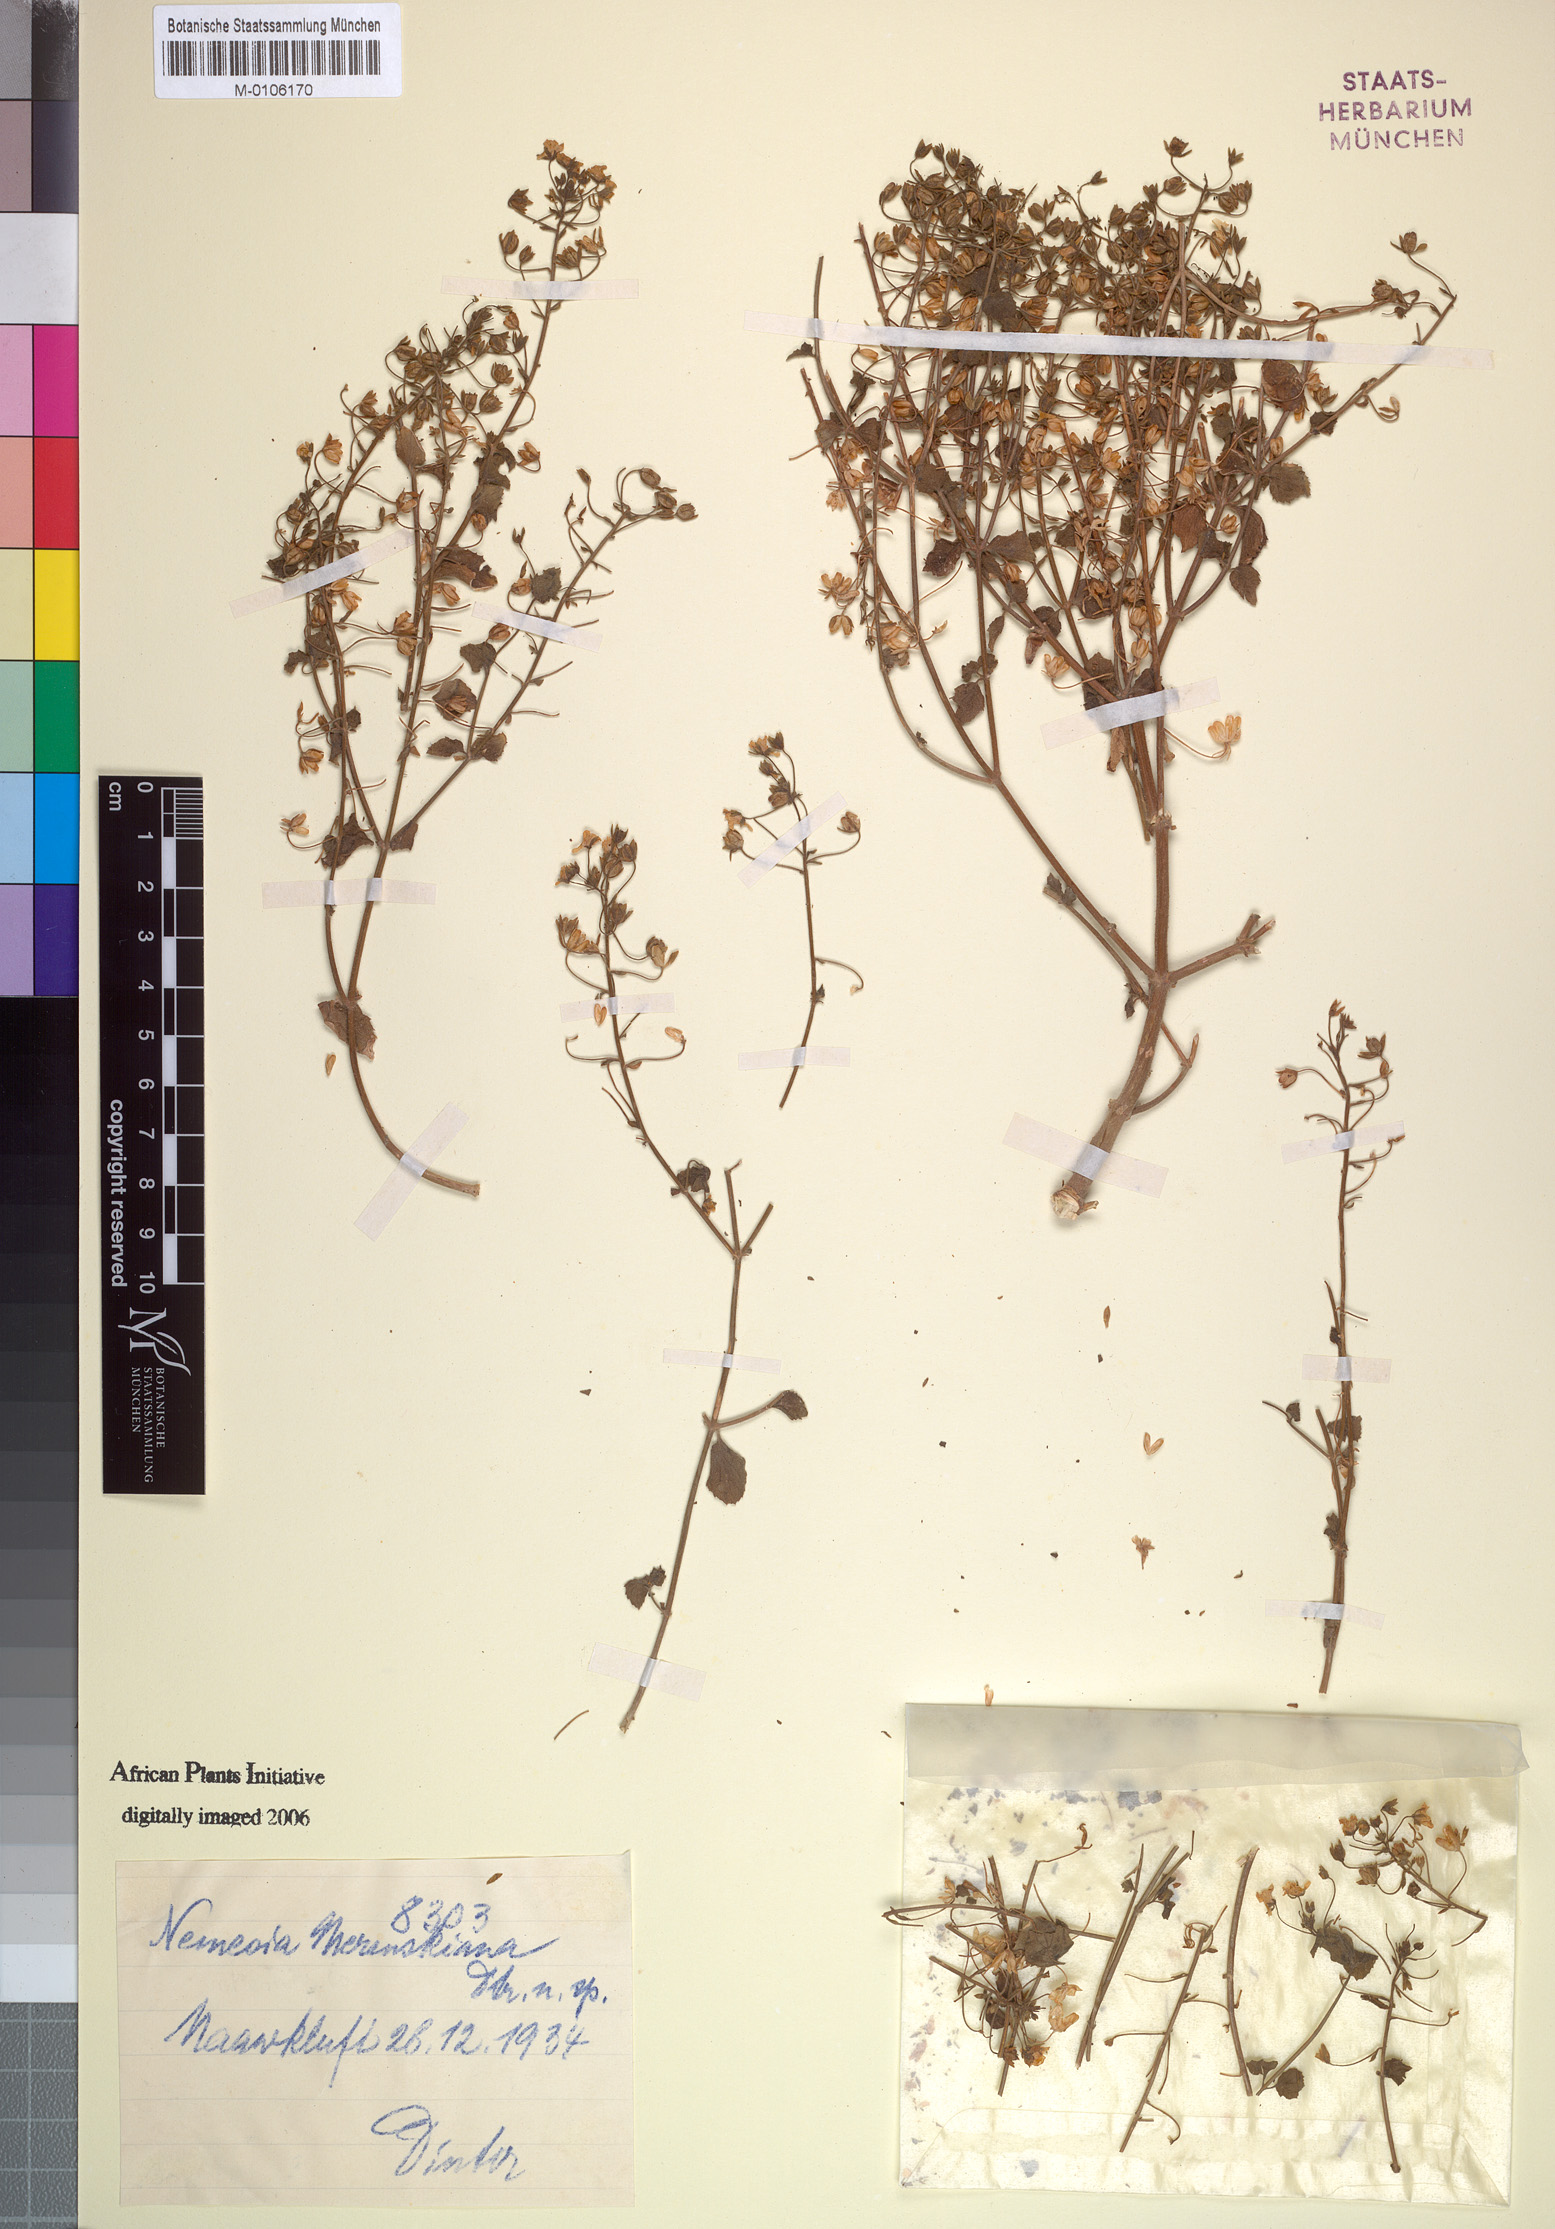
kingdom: Plantae
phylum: Tracheophyta
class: Magnoliopsida
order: Lamiales
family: Scrophulariaceae
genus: Nemesia
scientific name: Nemesia
